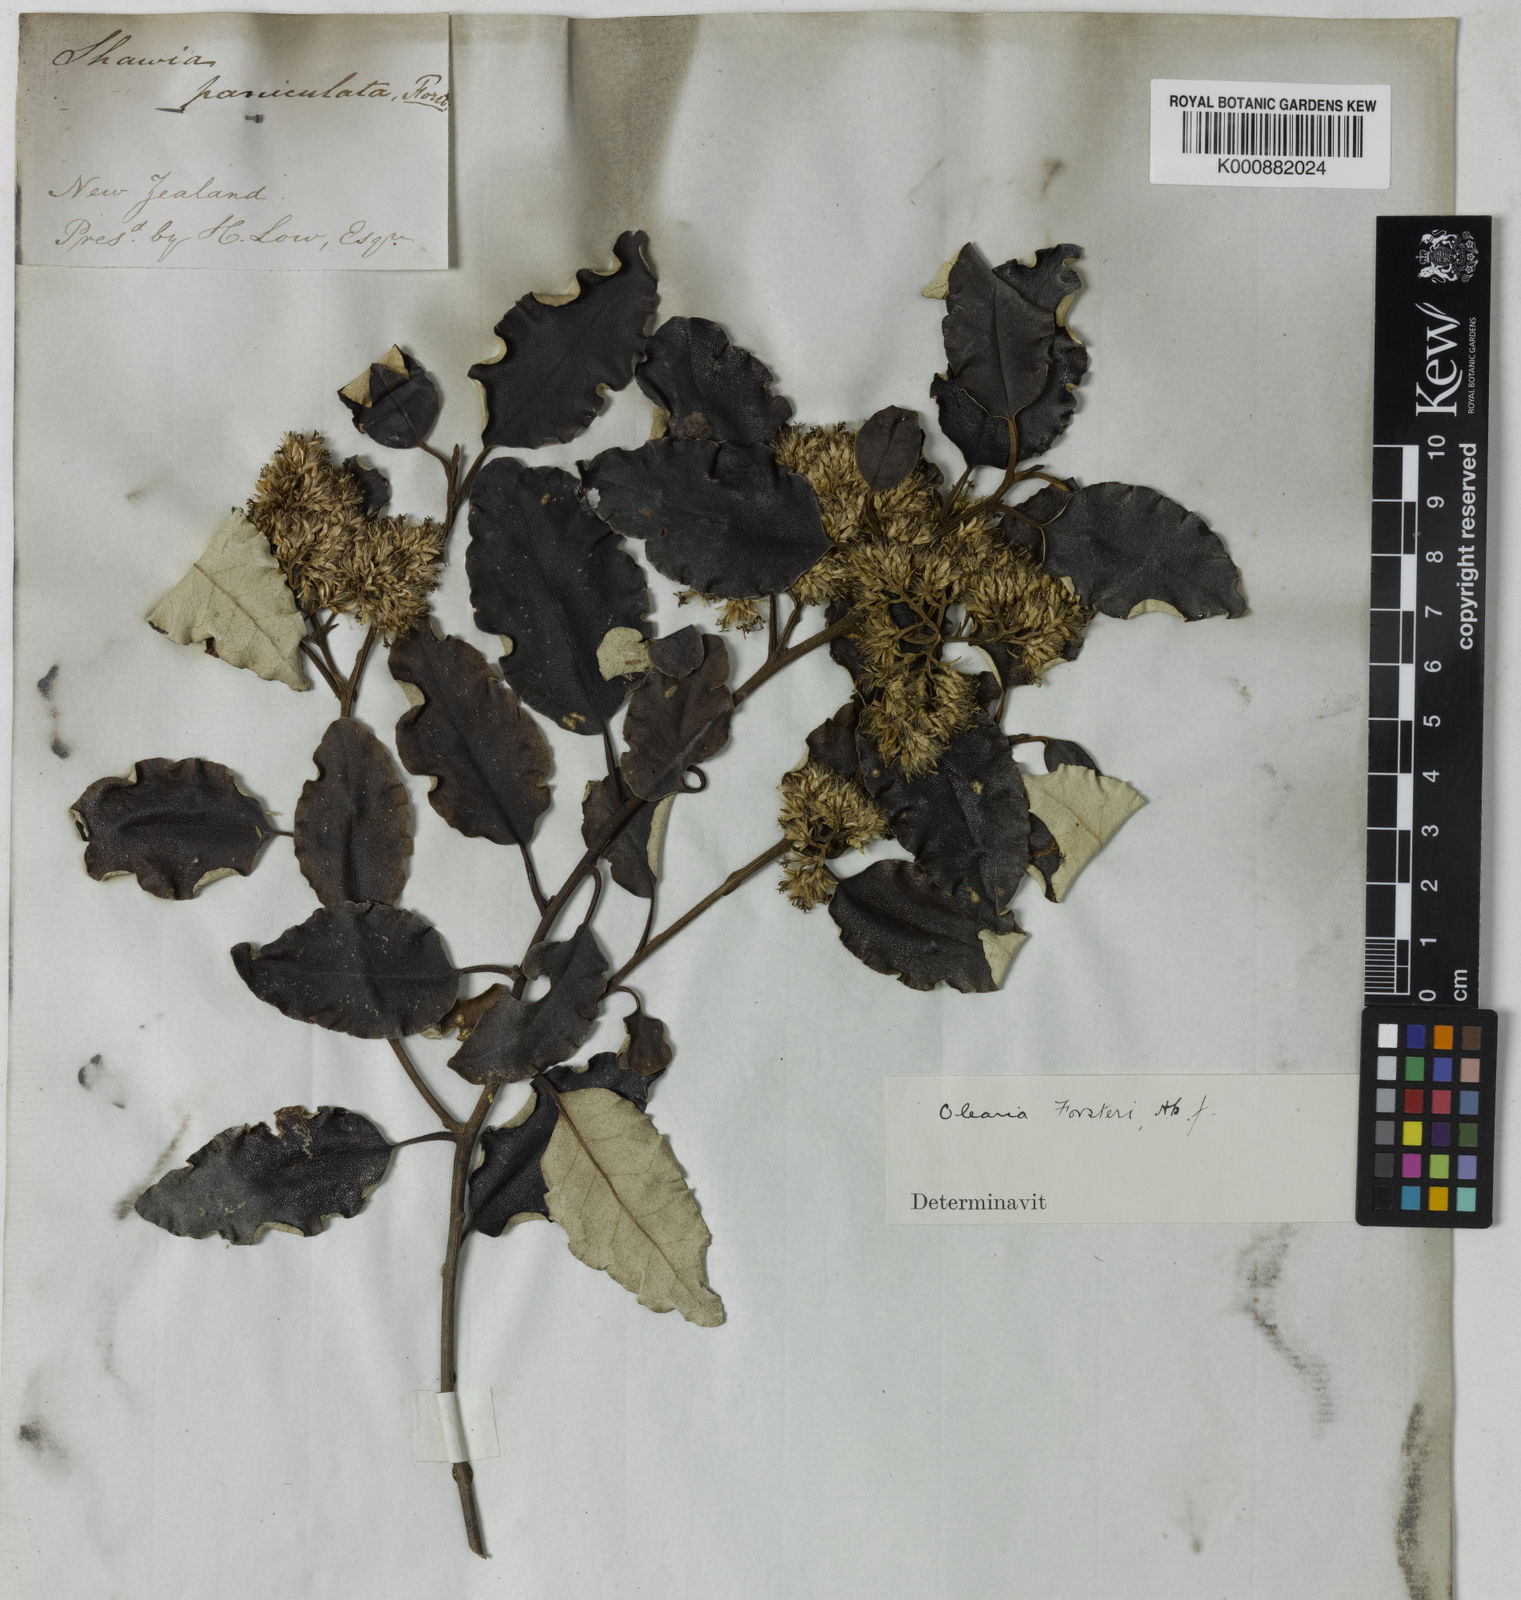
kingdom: Plantae
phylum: Tracheophyta
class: Magnoliopsida
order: Asterales
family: Asteraceae
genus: Olearia
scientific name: Olearia paniculata
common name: Akiraho
